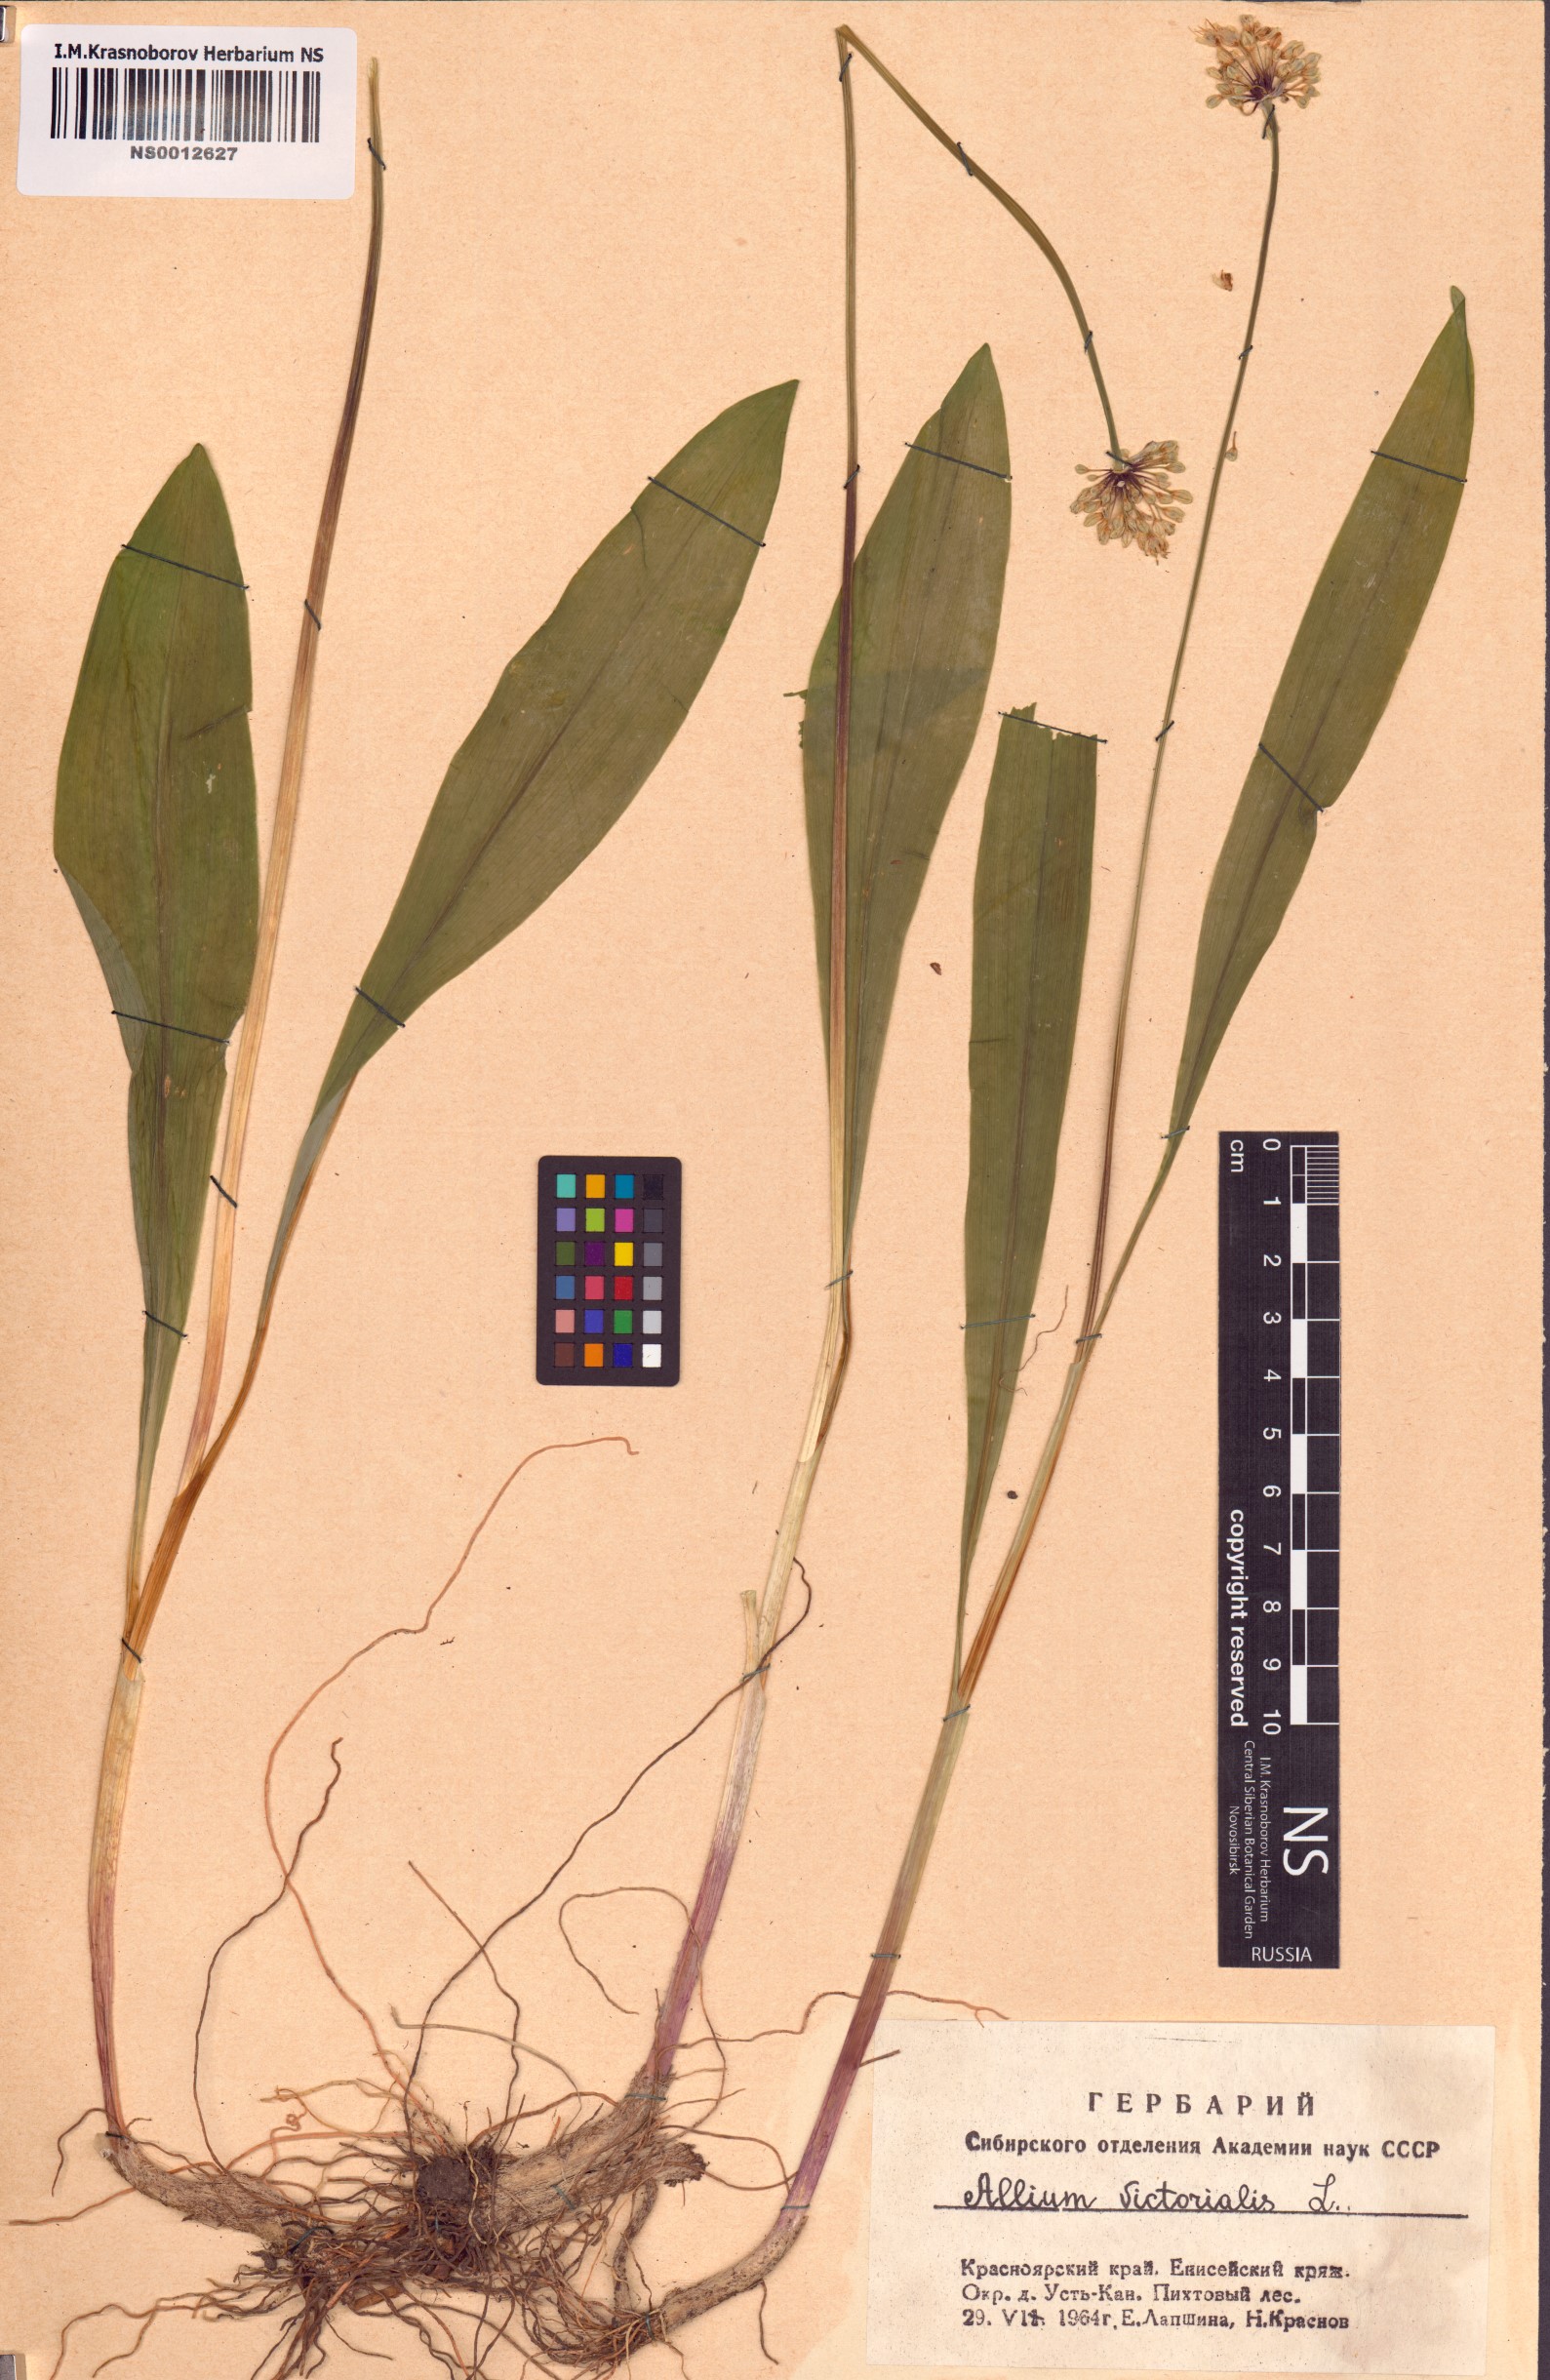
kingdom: Plantae
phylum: Tracheophyta
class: Liliopsida
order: Asparagales
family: Amaryllidaceae
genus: Allium
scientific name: Allium microdictyon
